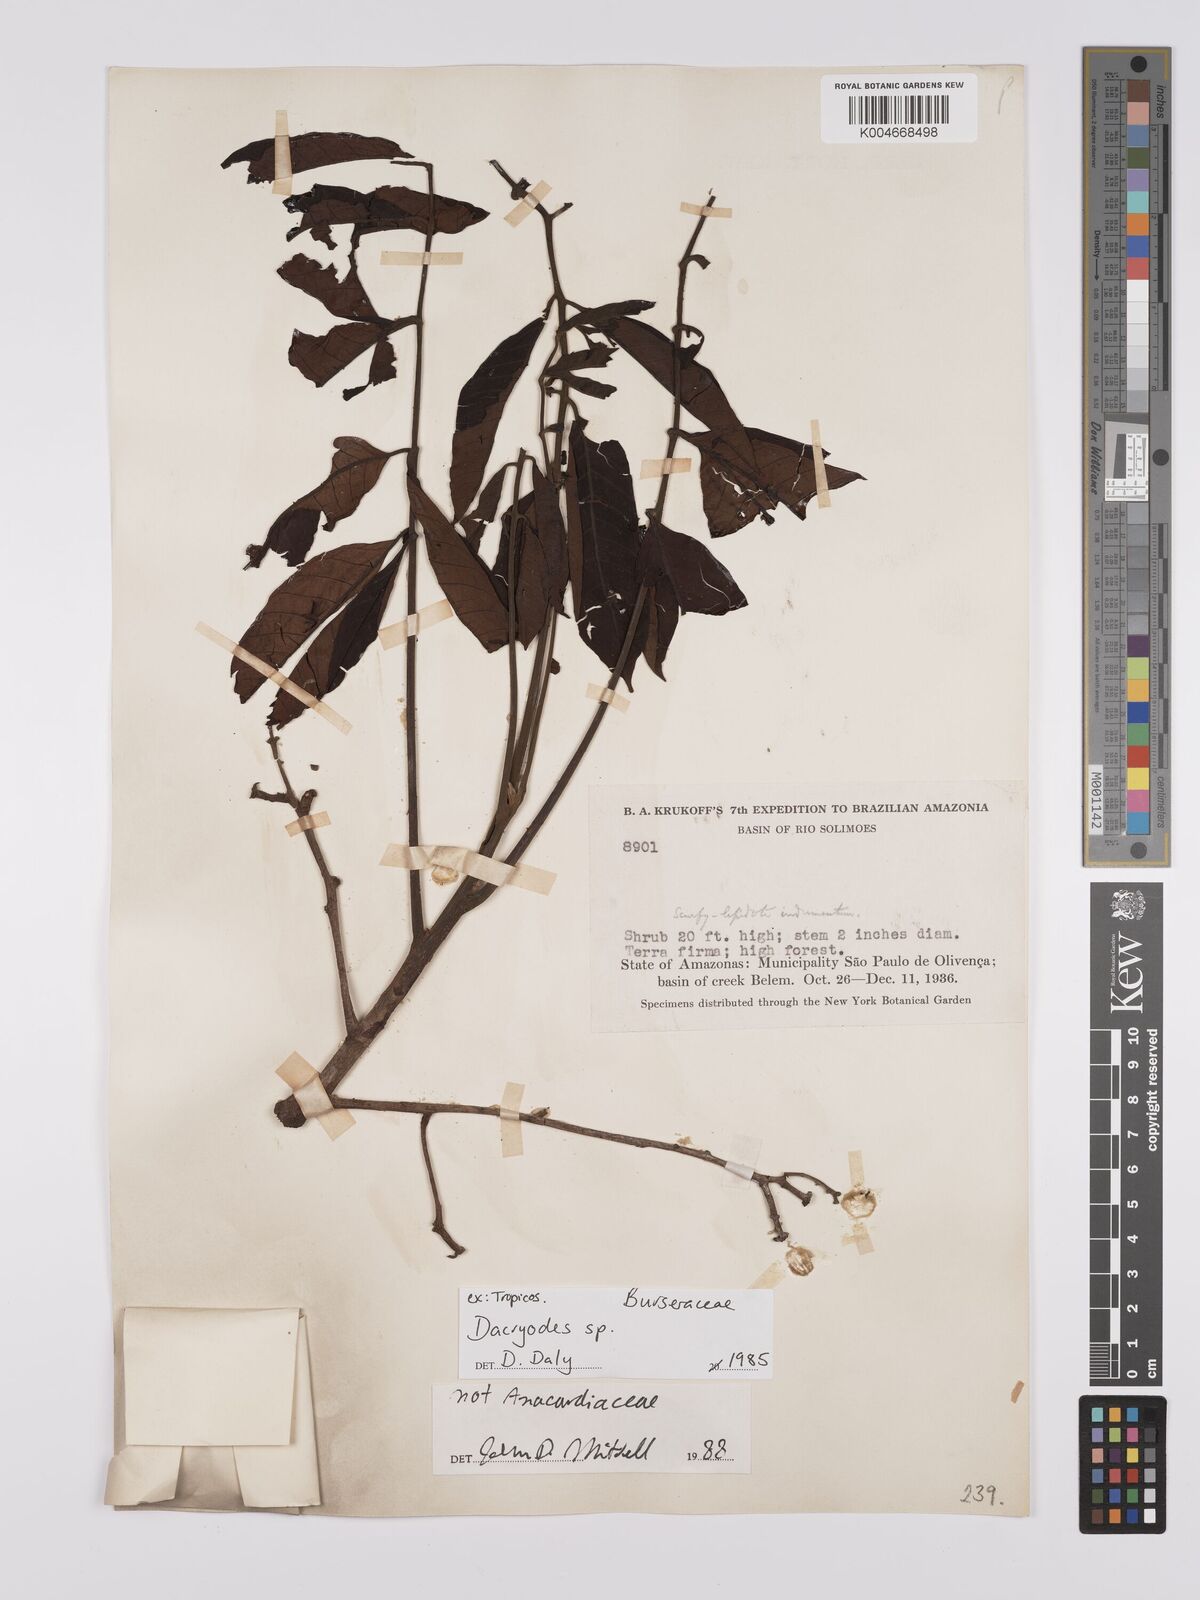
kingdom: Plantae
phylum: Tracheophyta
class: Magnoliopsida
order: Sapindales
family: Burseraceae
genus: Dacryodes
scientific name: Dacryodes
